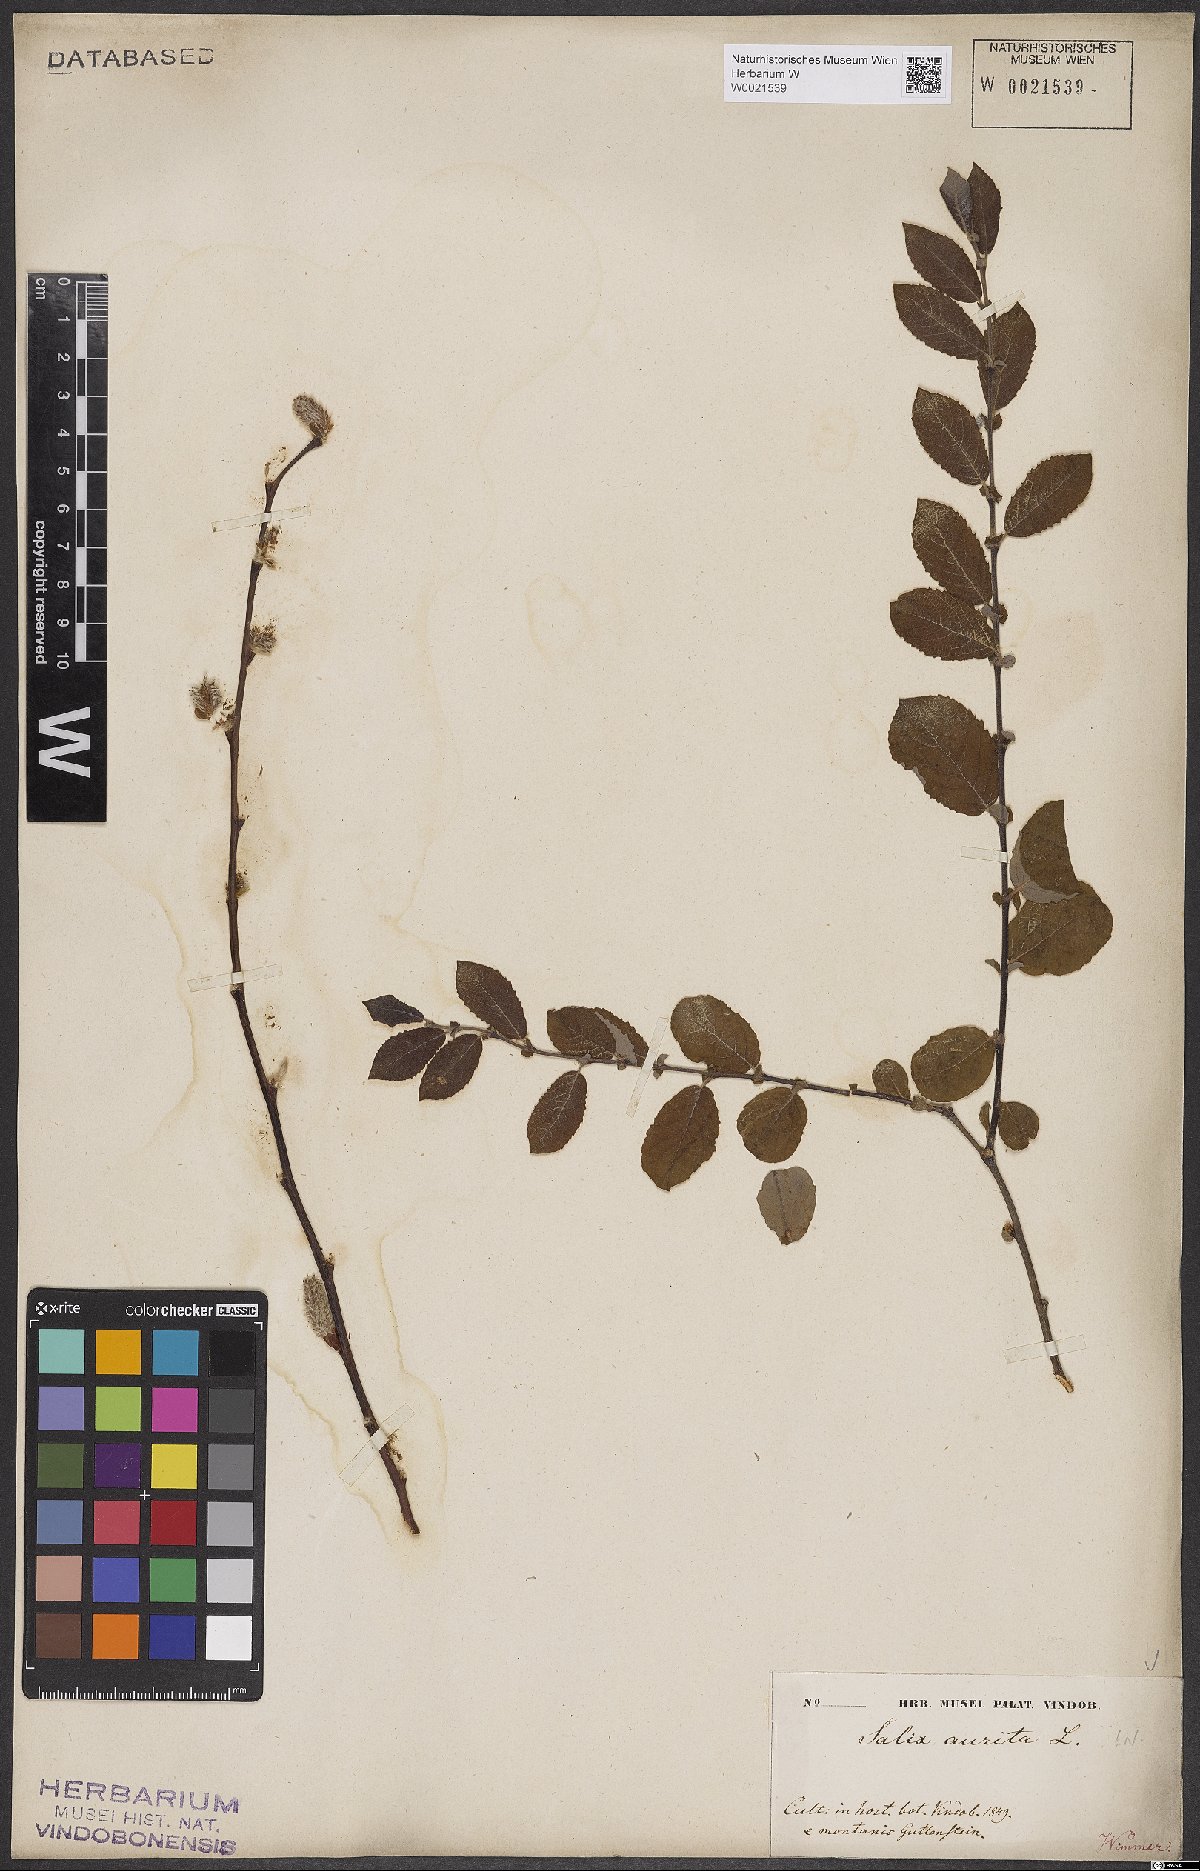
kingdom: Plantae
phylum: Tracheophyta
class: Magnoliopsida
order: Malpighiales
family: Salicaceae
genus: Salix
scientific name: Salix aurita
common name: Eared willow
